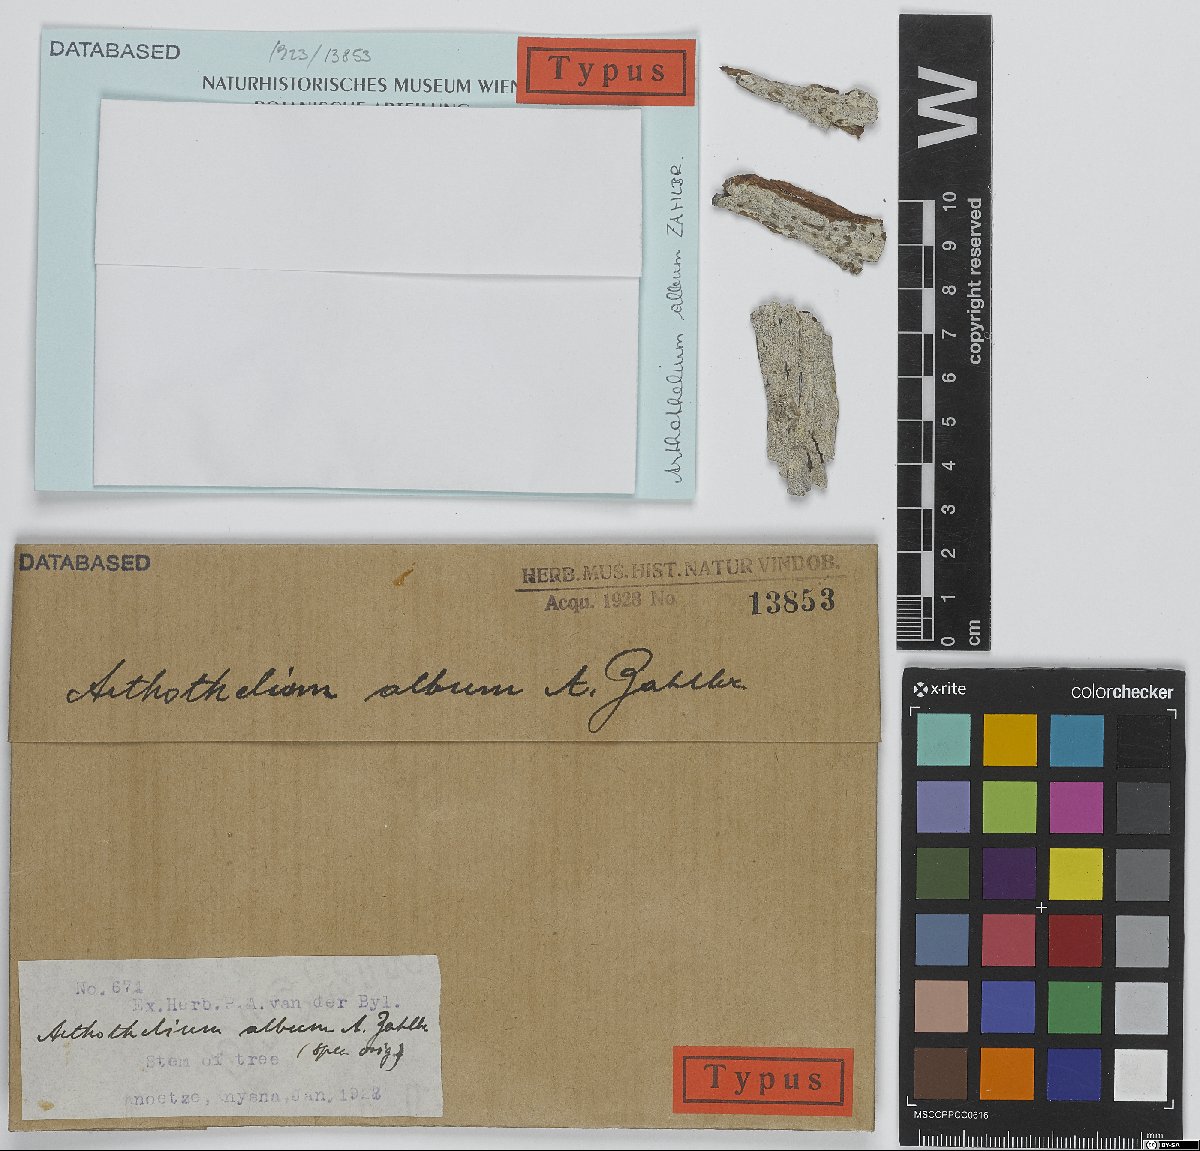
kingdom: Fungi
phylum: Ascomycota
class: Arthoniomycetes
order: Arthoniales
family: Arthoniaceae
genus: Arthothelium
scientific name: Arthothelium
